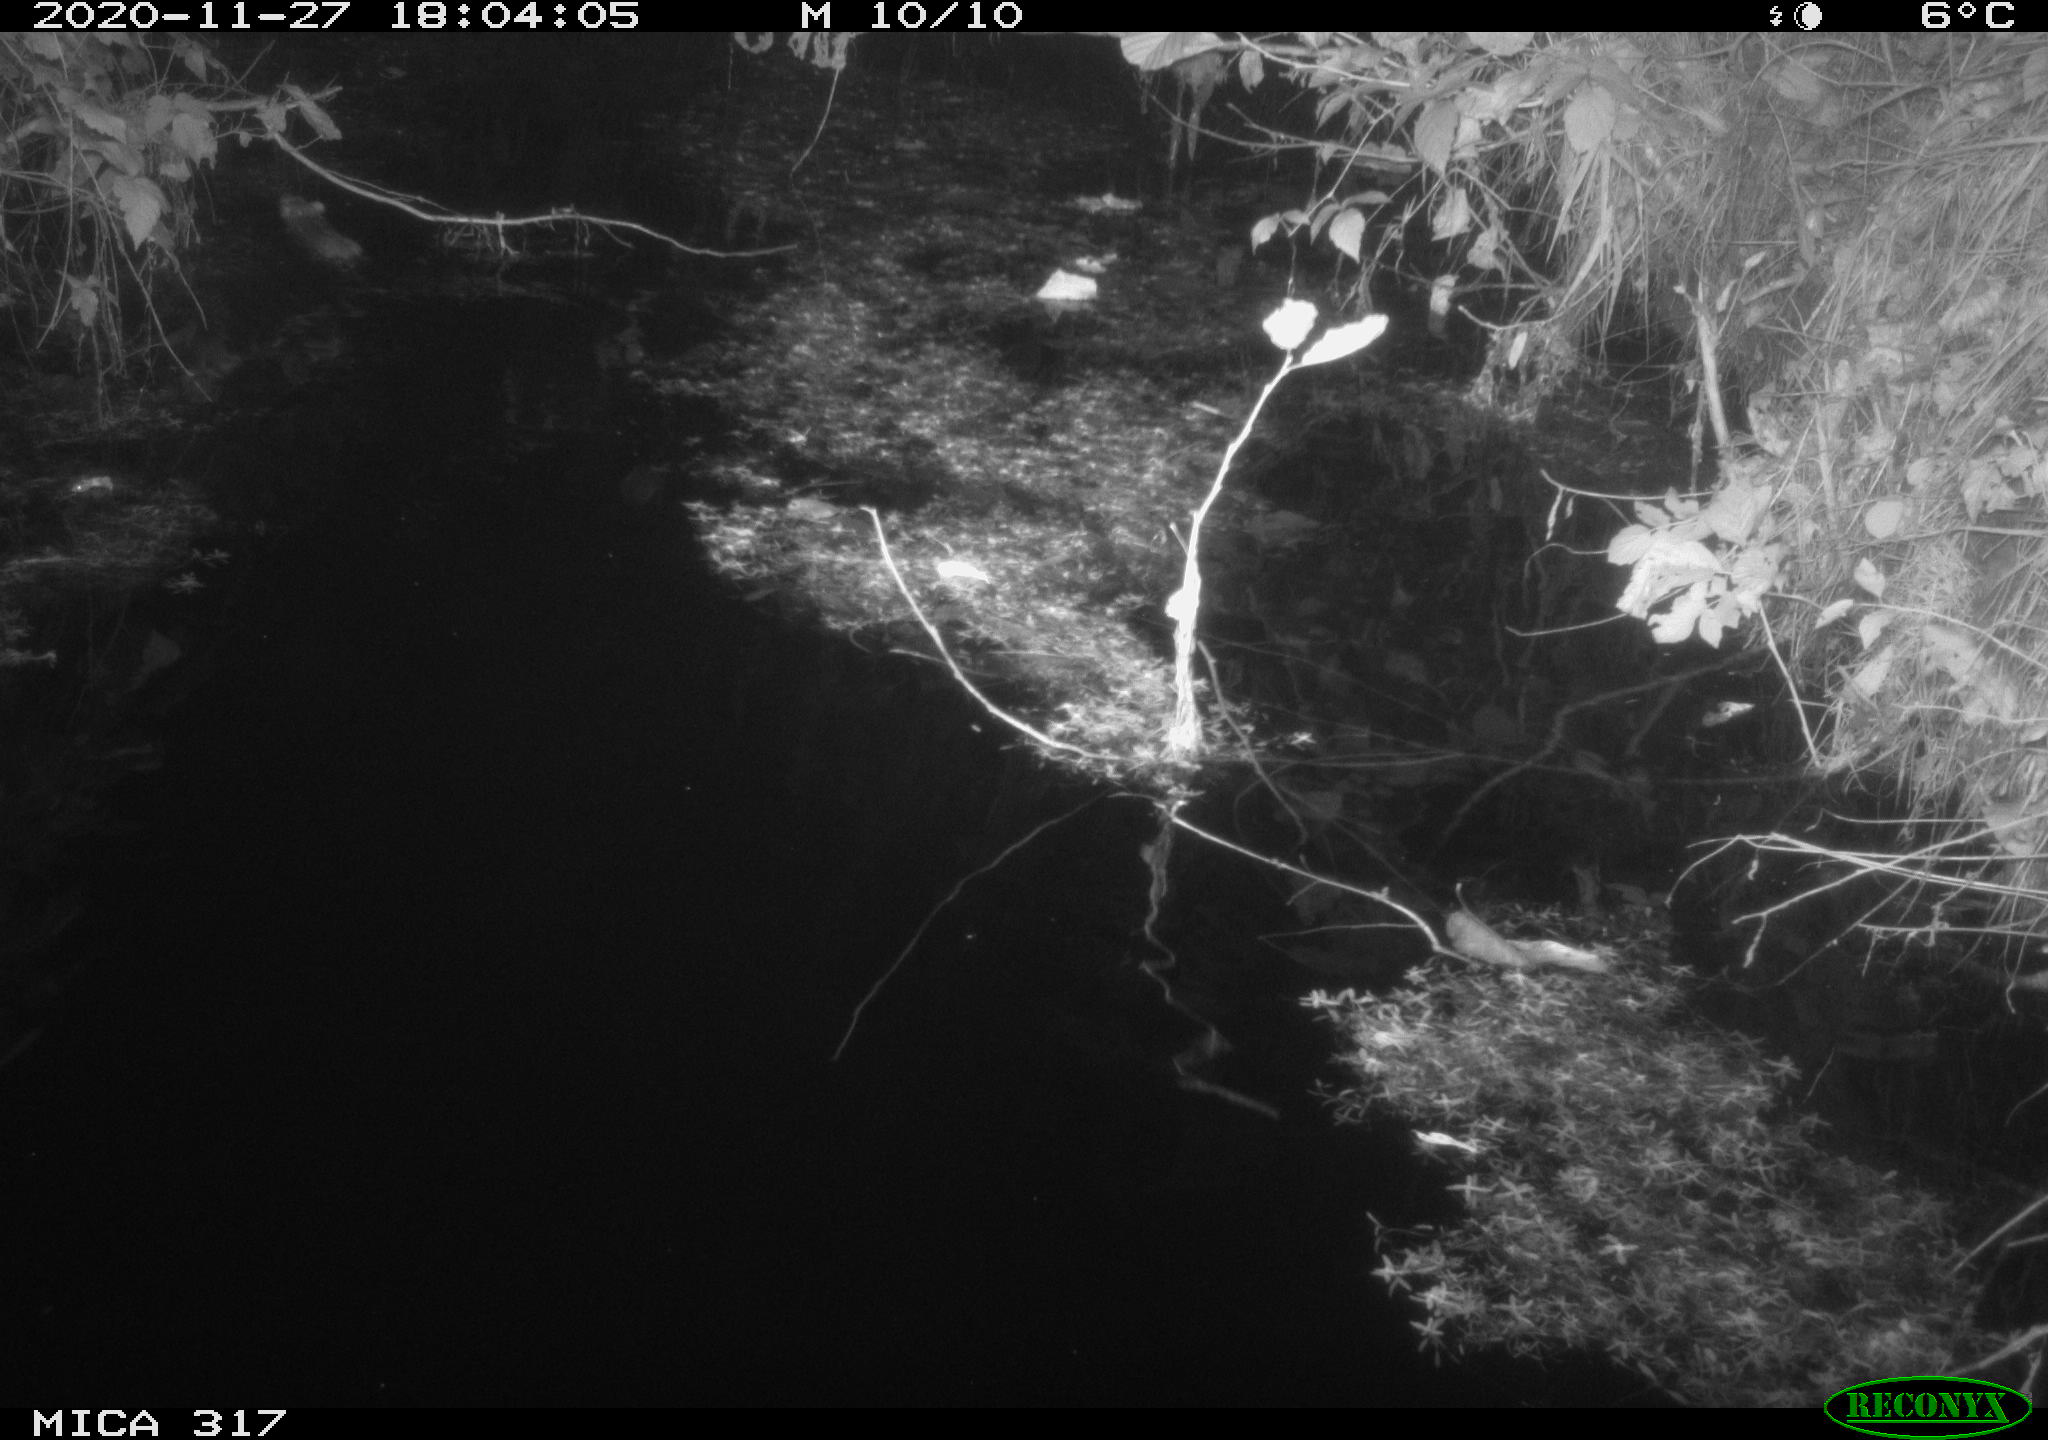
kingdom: Animalia
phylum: Chordata
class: Mammalia
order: Rodentia
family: Muridae
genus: Rattus
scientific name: Rattus norvegicus
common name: Brown rat
